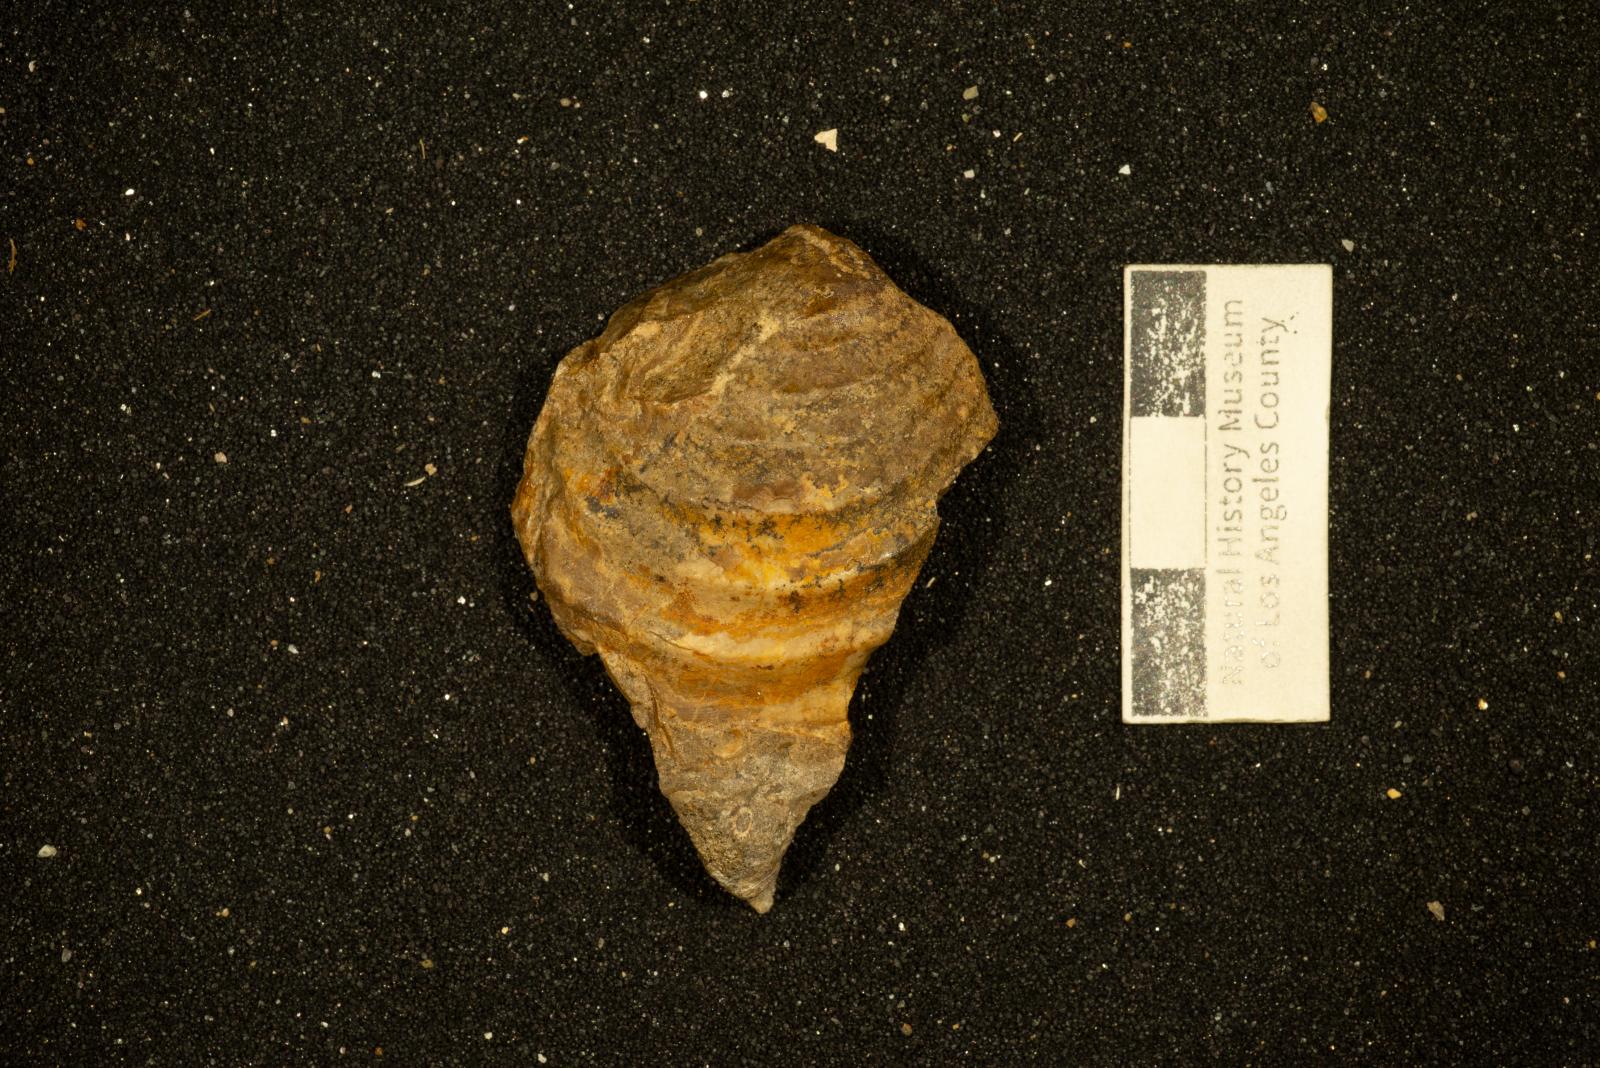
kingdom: Animalia
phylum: Mollusca
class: Bivalvia
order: Myalinida
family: Inoceramidae
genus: Cataceramus
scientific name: Cataceramus
